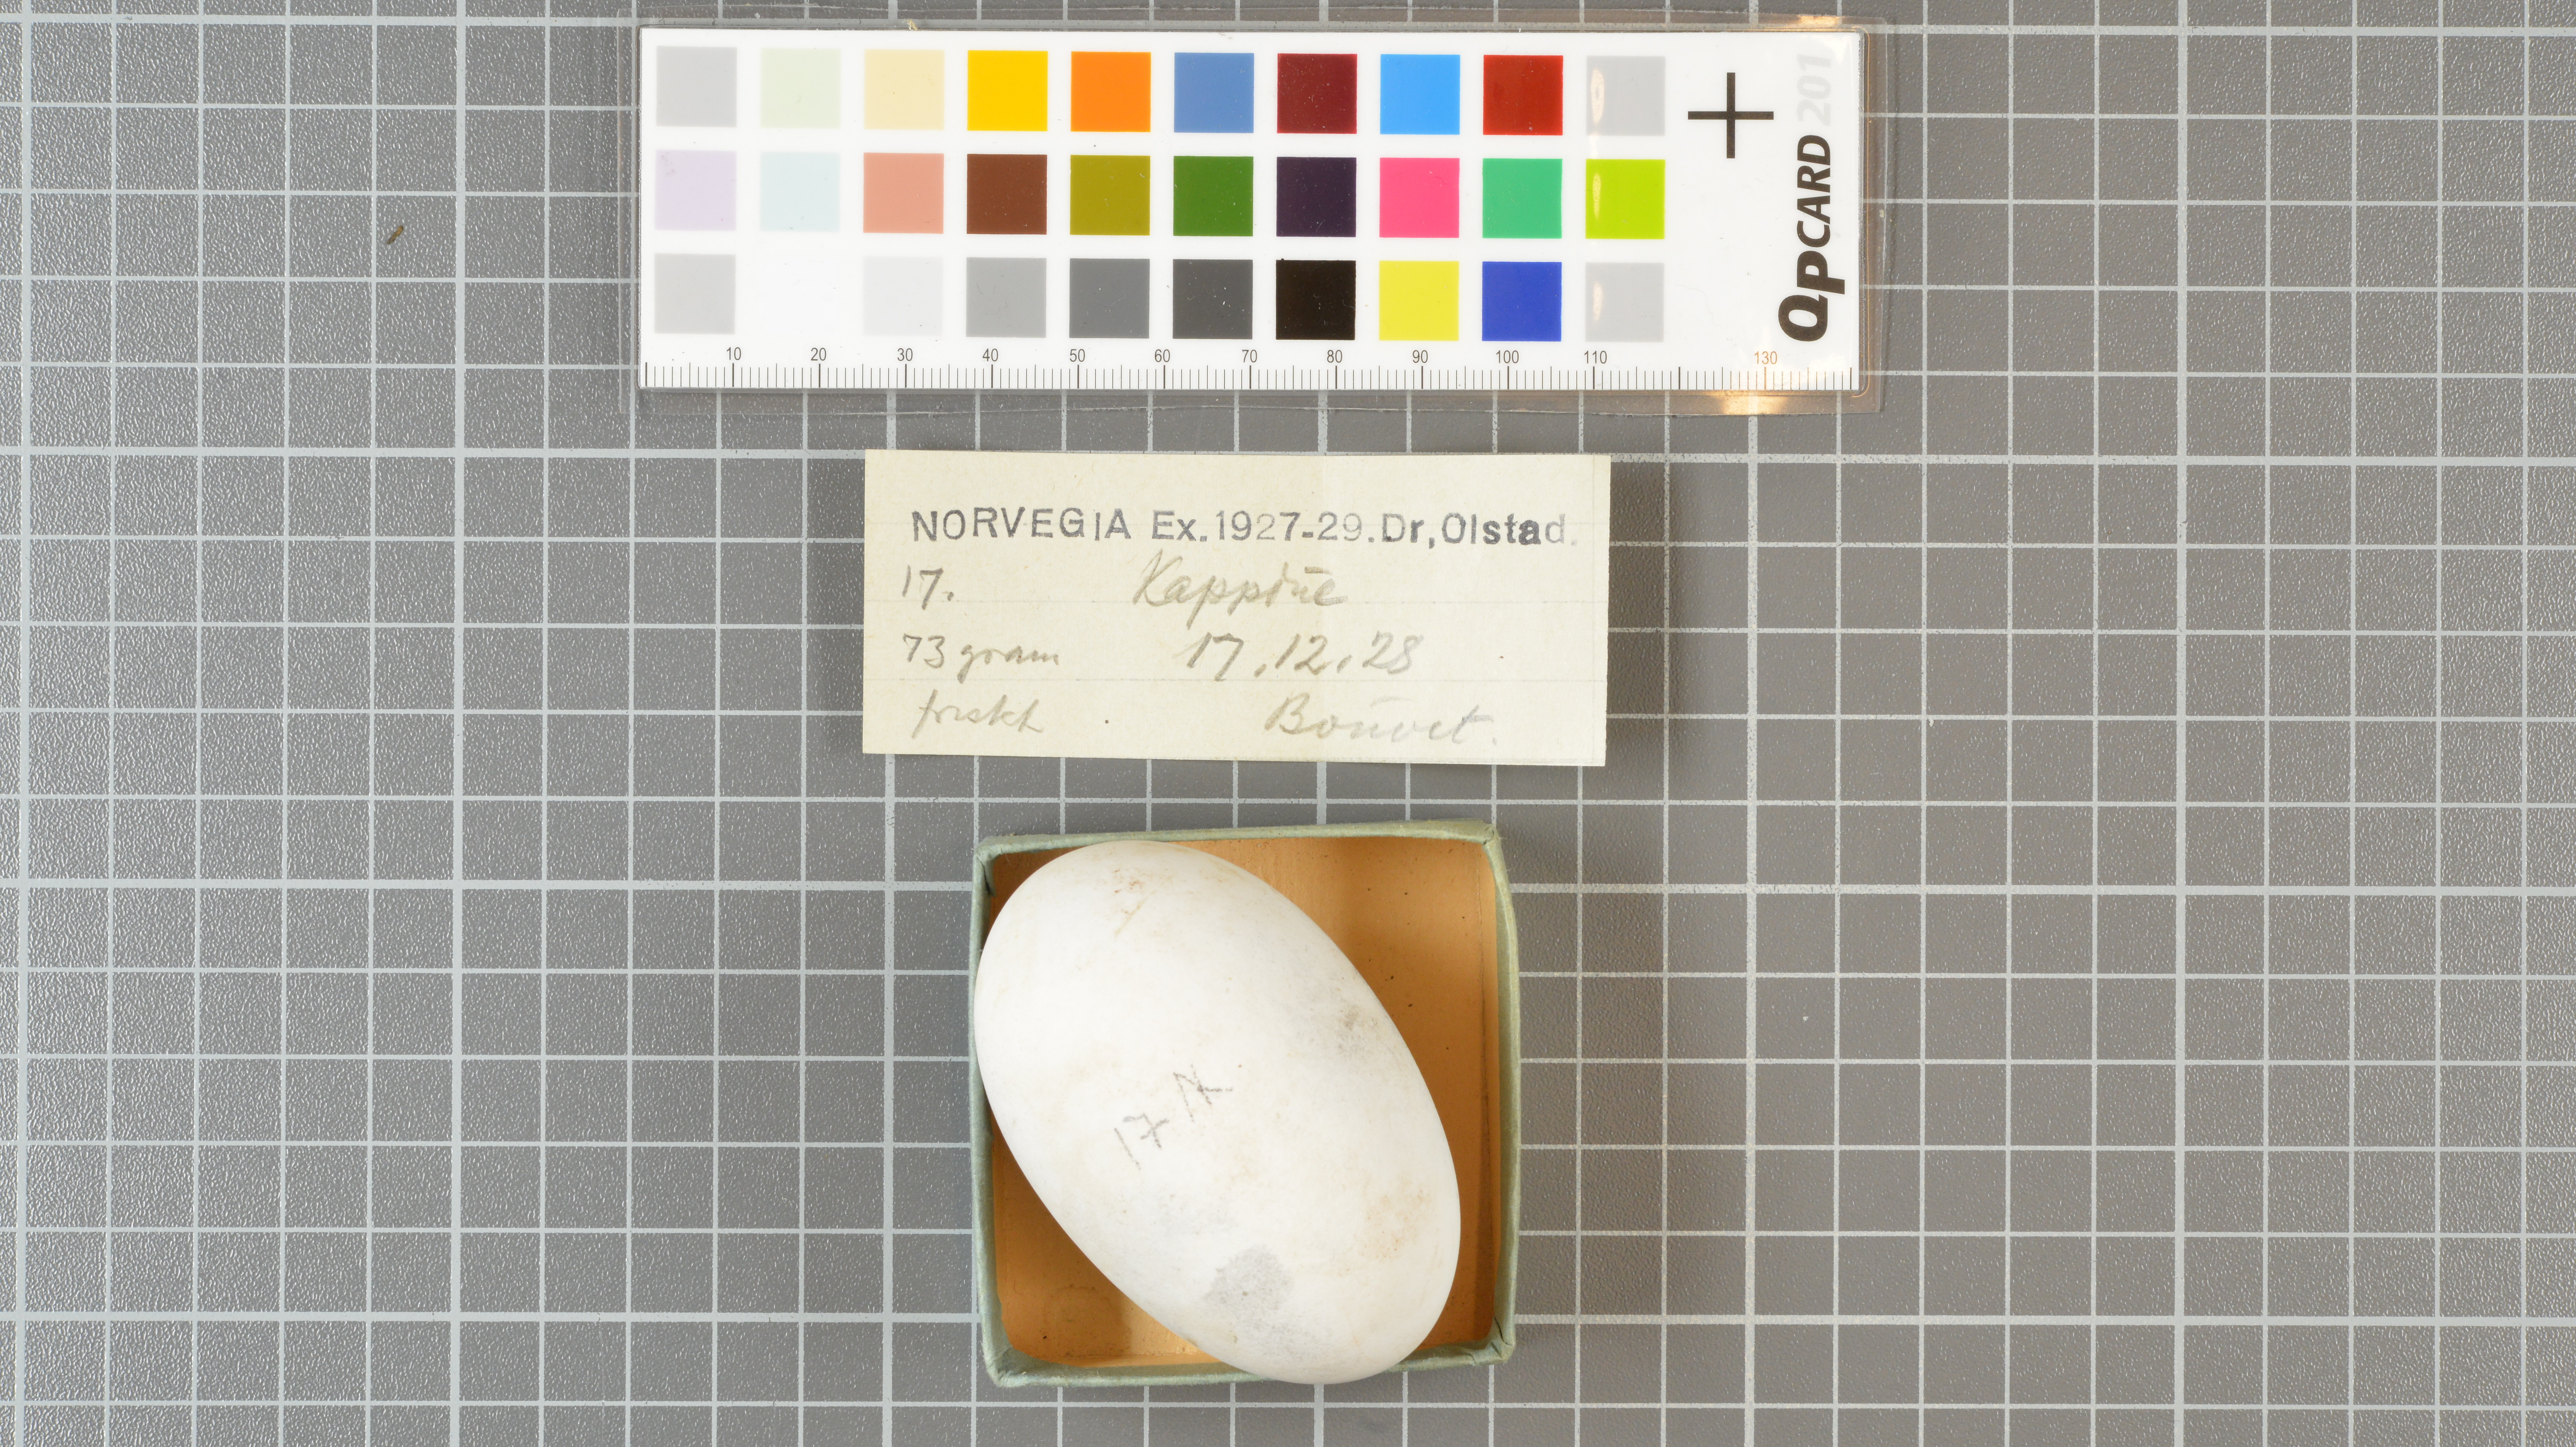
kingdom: Animalia
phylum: Chordata
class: Aves
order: Procellariiformes
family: Procellariidae
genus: Daption
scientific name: Daption capense
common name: Cape petrel
